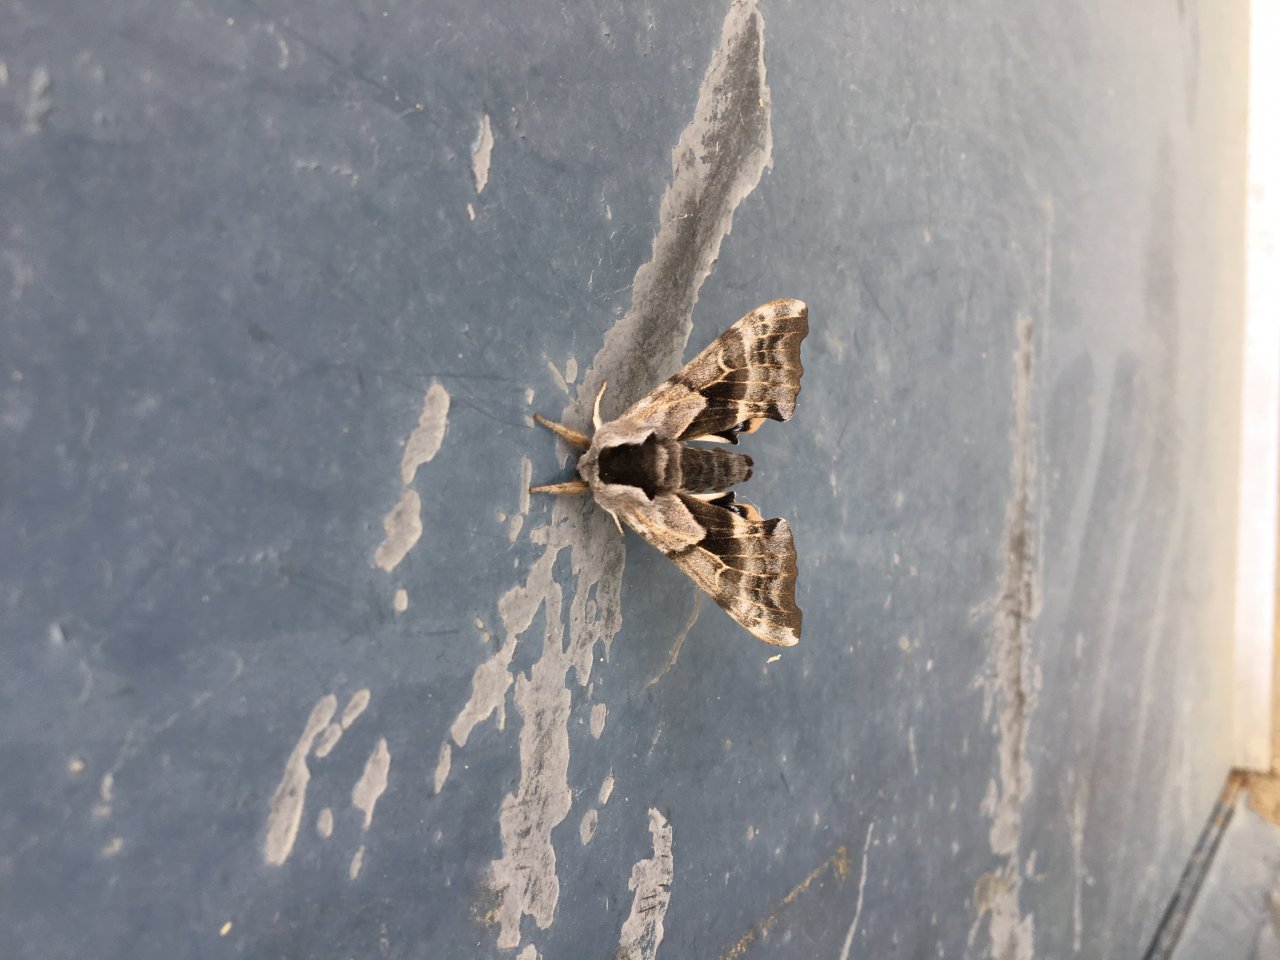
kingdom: Animalia
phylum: Arthropoda
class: Insecta
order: Lepidoptera
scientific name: Lepidoptera
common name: Butterflies
